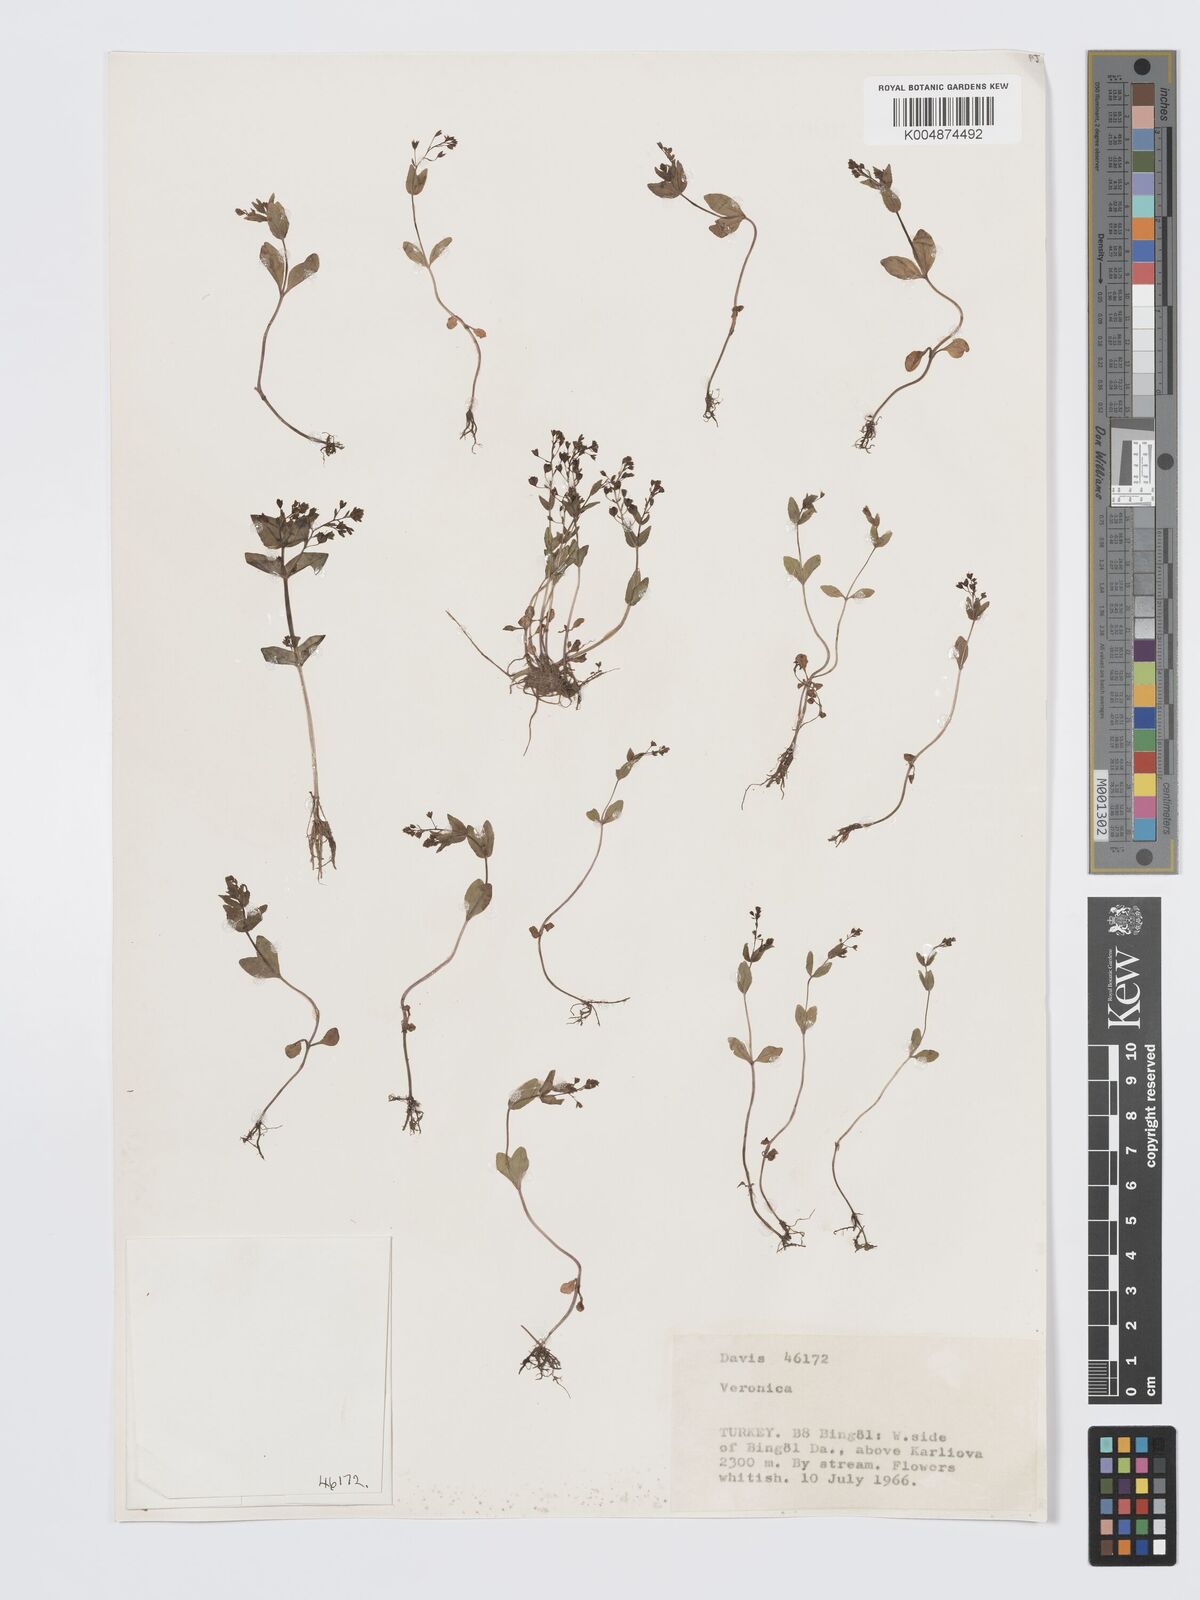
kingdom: Plantae
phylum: Tracheophyta
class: Magnoliopsida
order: Lamiales
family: Plantaginaceae
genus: Veronica
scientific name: Veronica oxycarpa
